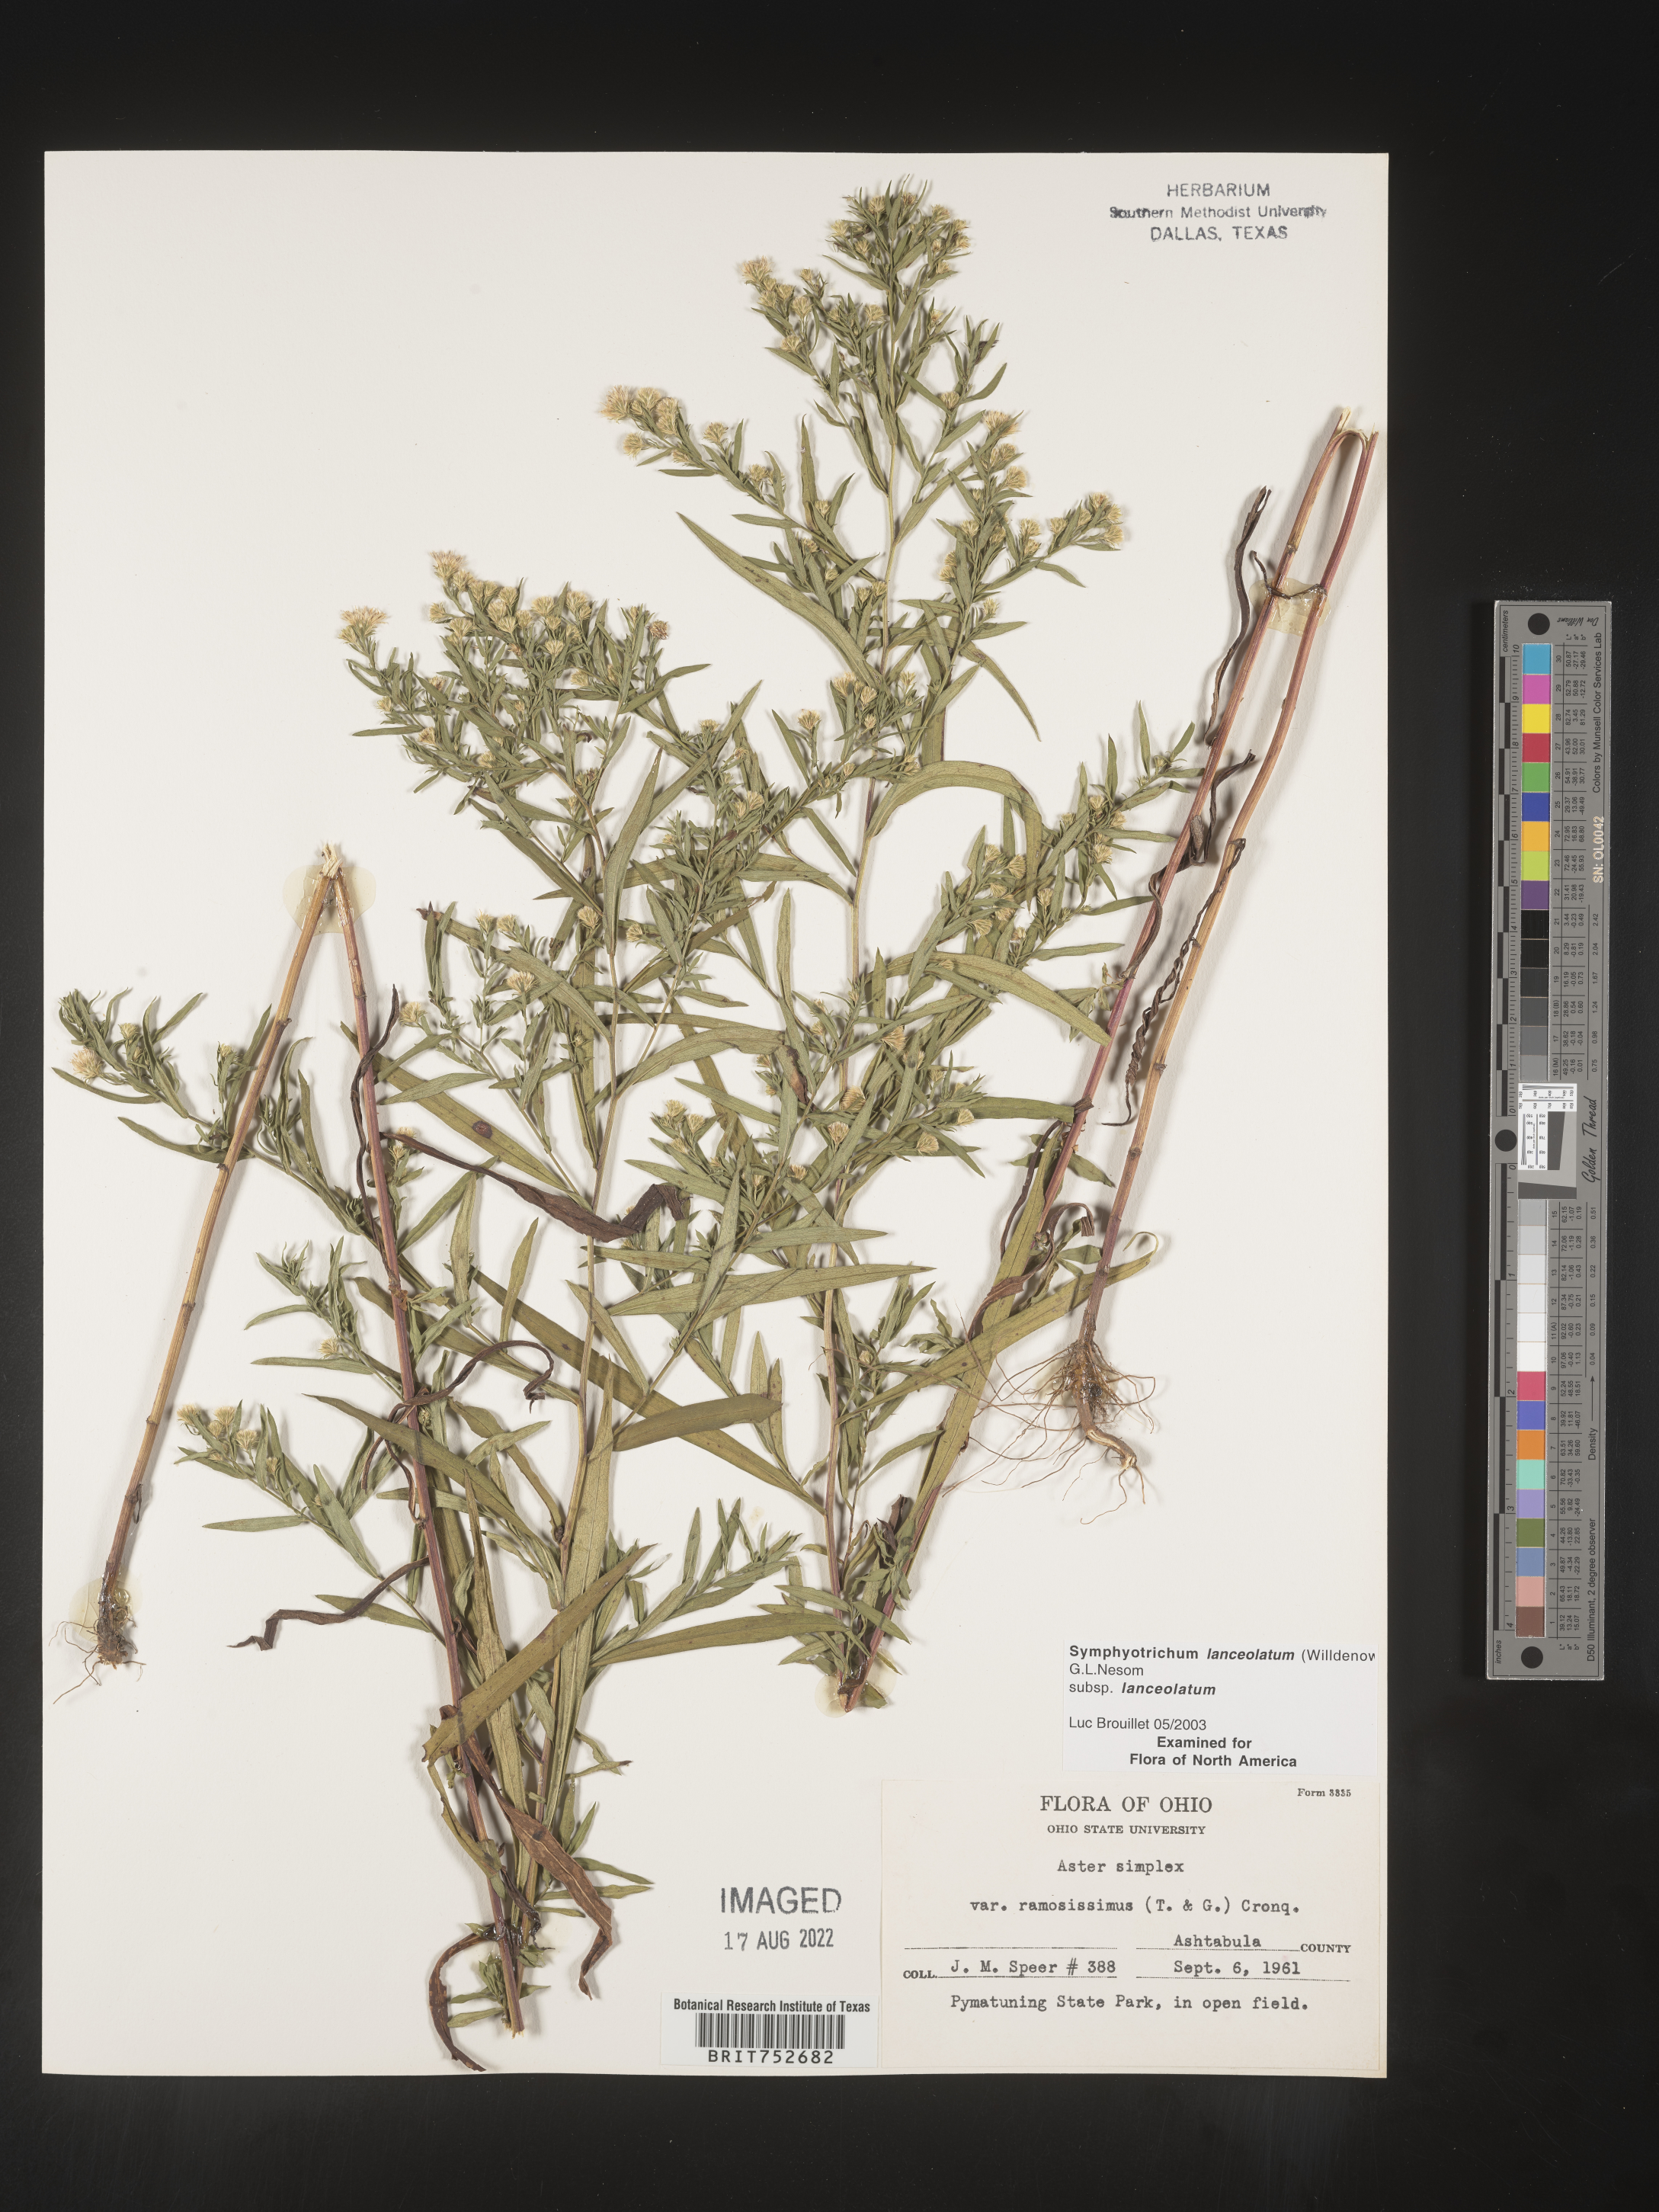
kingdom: Plantae
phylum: Tracheophyta
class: Magnoliopsida
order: Asterales
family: Asteraceae
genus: Symphyotrichum
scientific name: Symphyotrichum lanceolatum
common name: Panicled aster
